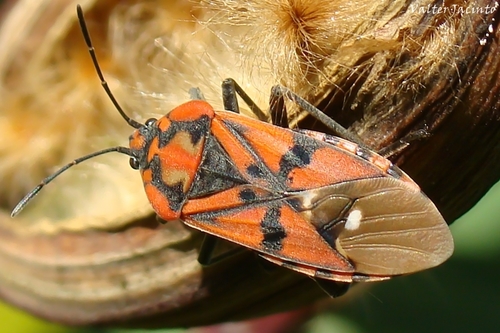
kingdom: Animalia
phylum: Arthropoda
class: Insecta
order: Hemiptera
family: Lygaeidae
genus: Spilostethus
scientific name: Spilostethus pandurus
